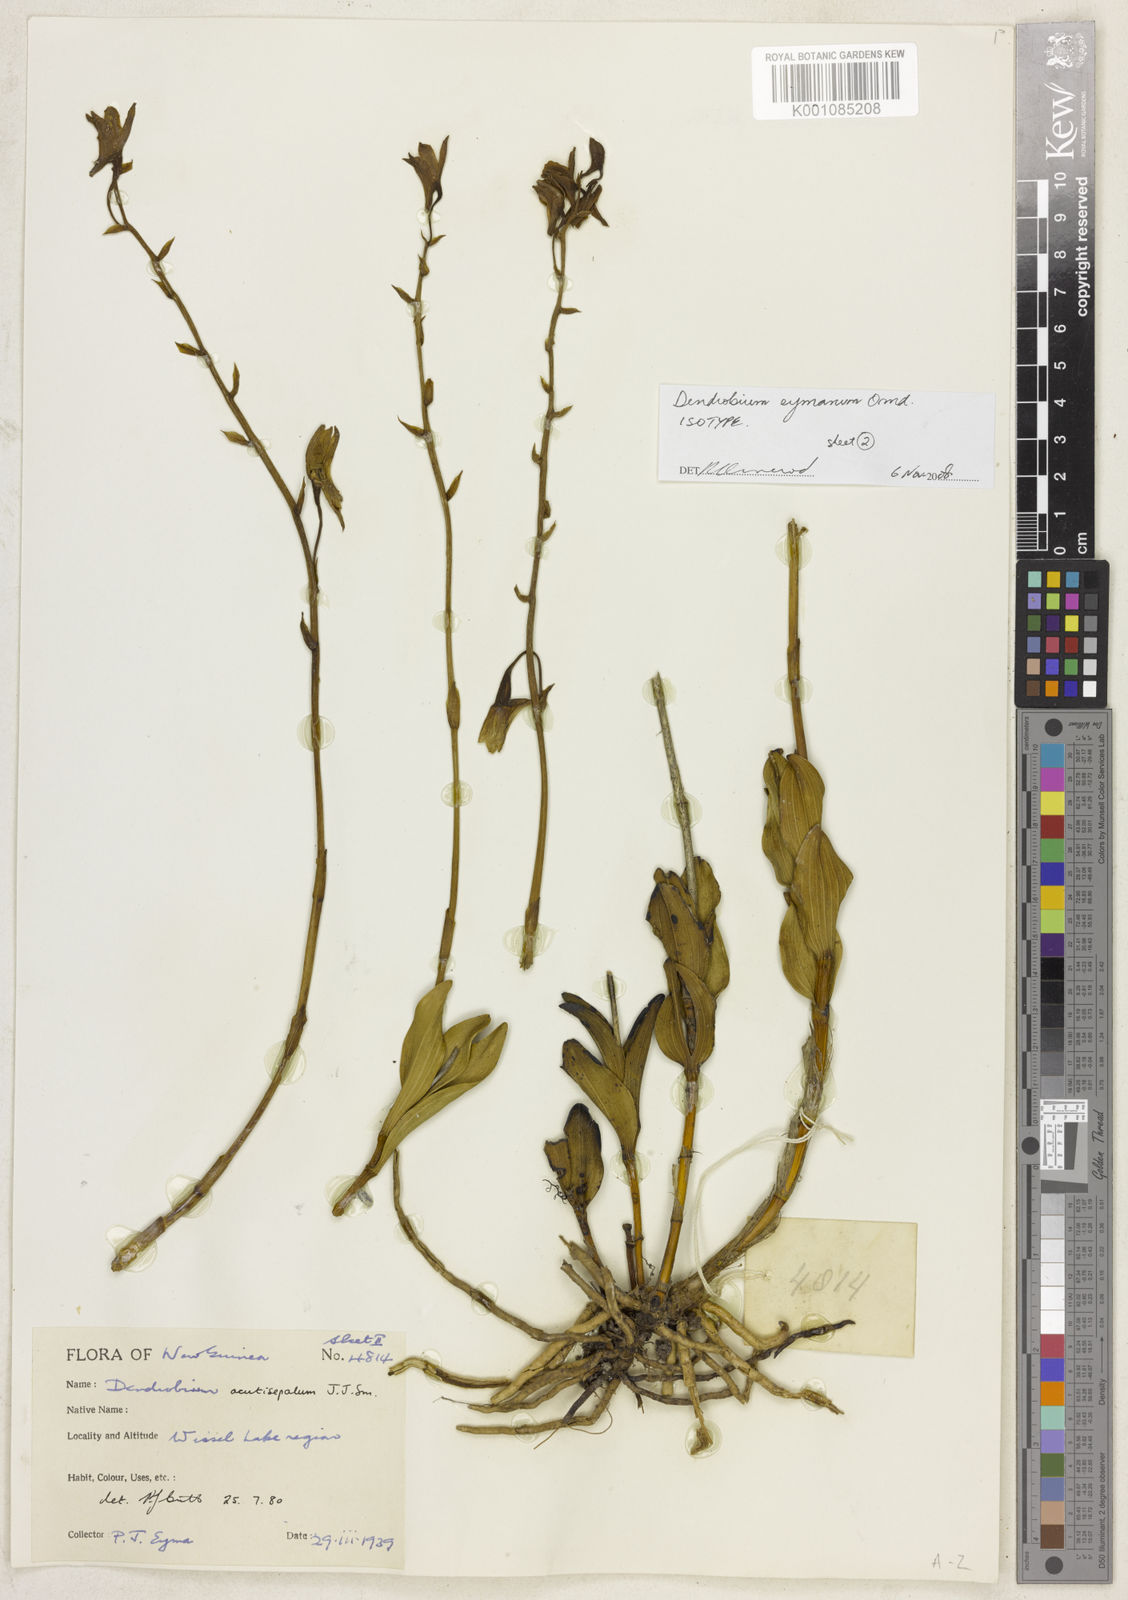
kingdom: Plantae
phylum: Tracheophyta
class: Liliopsida
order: Asparagales
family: Orchidaceae
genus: Dendrobium
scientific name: Dendrobium eymanum
